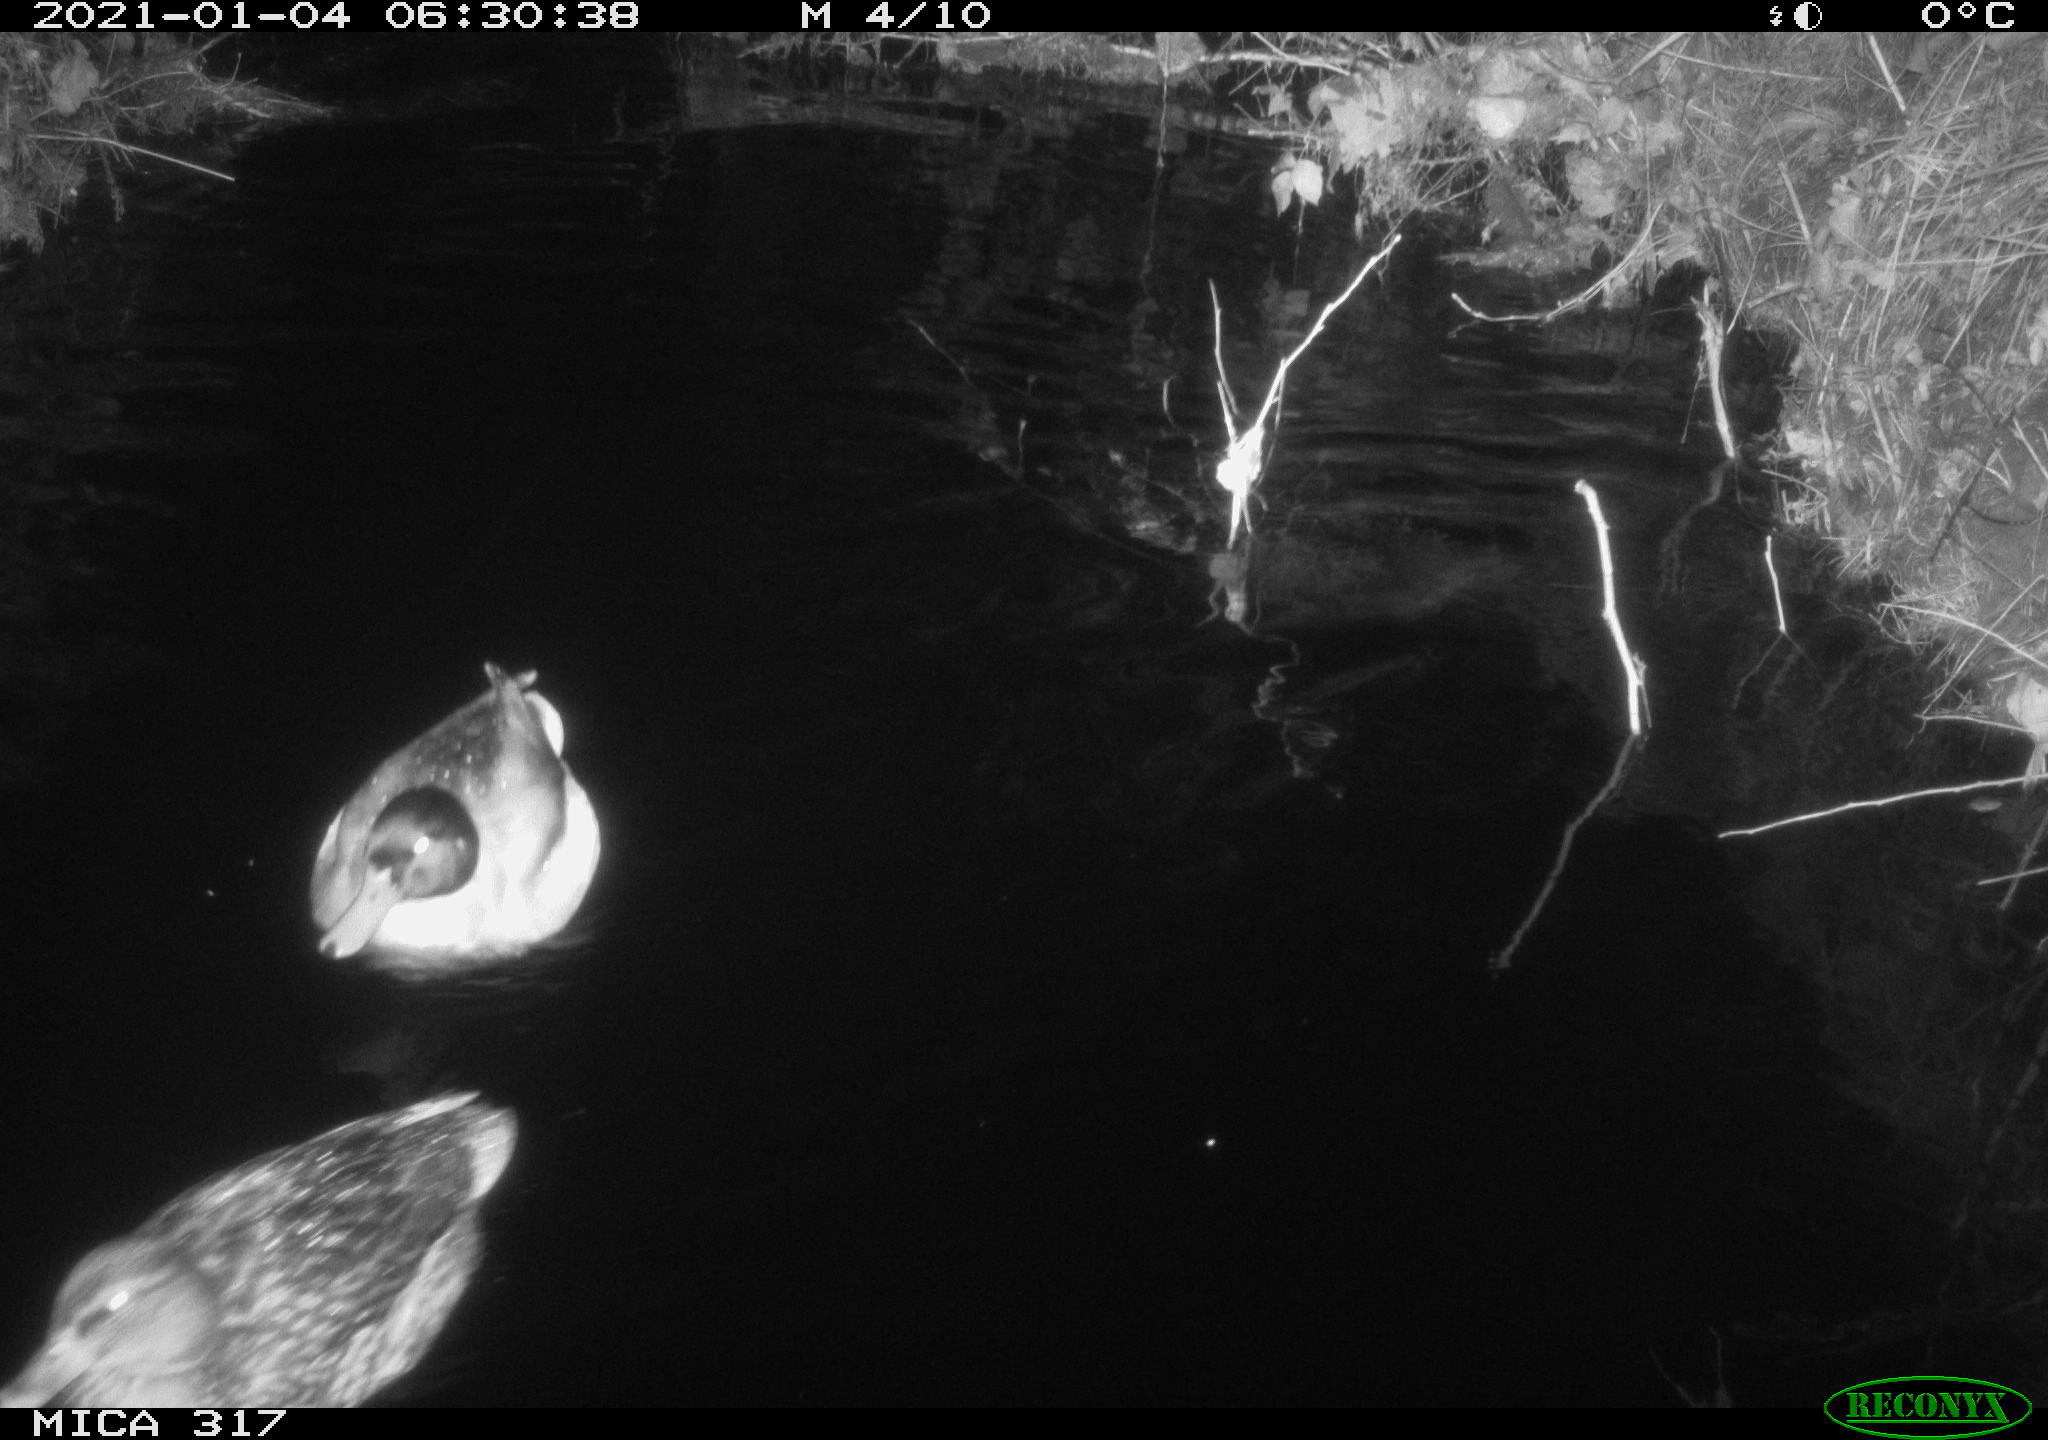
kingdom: Animalia
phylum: Chordata
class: Aves
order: Anseriformes
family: Anatidae
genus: Anas
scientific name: Anas platyrhynchos
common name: Mallard
